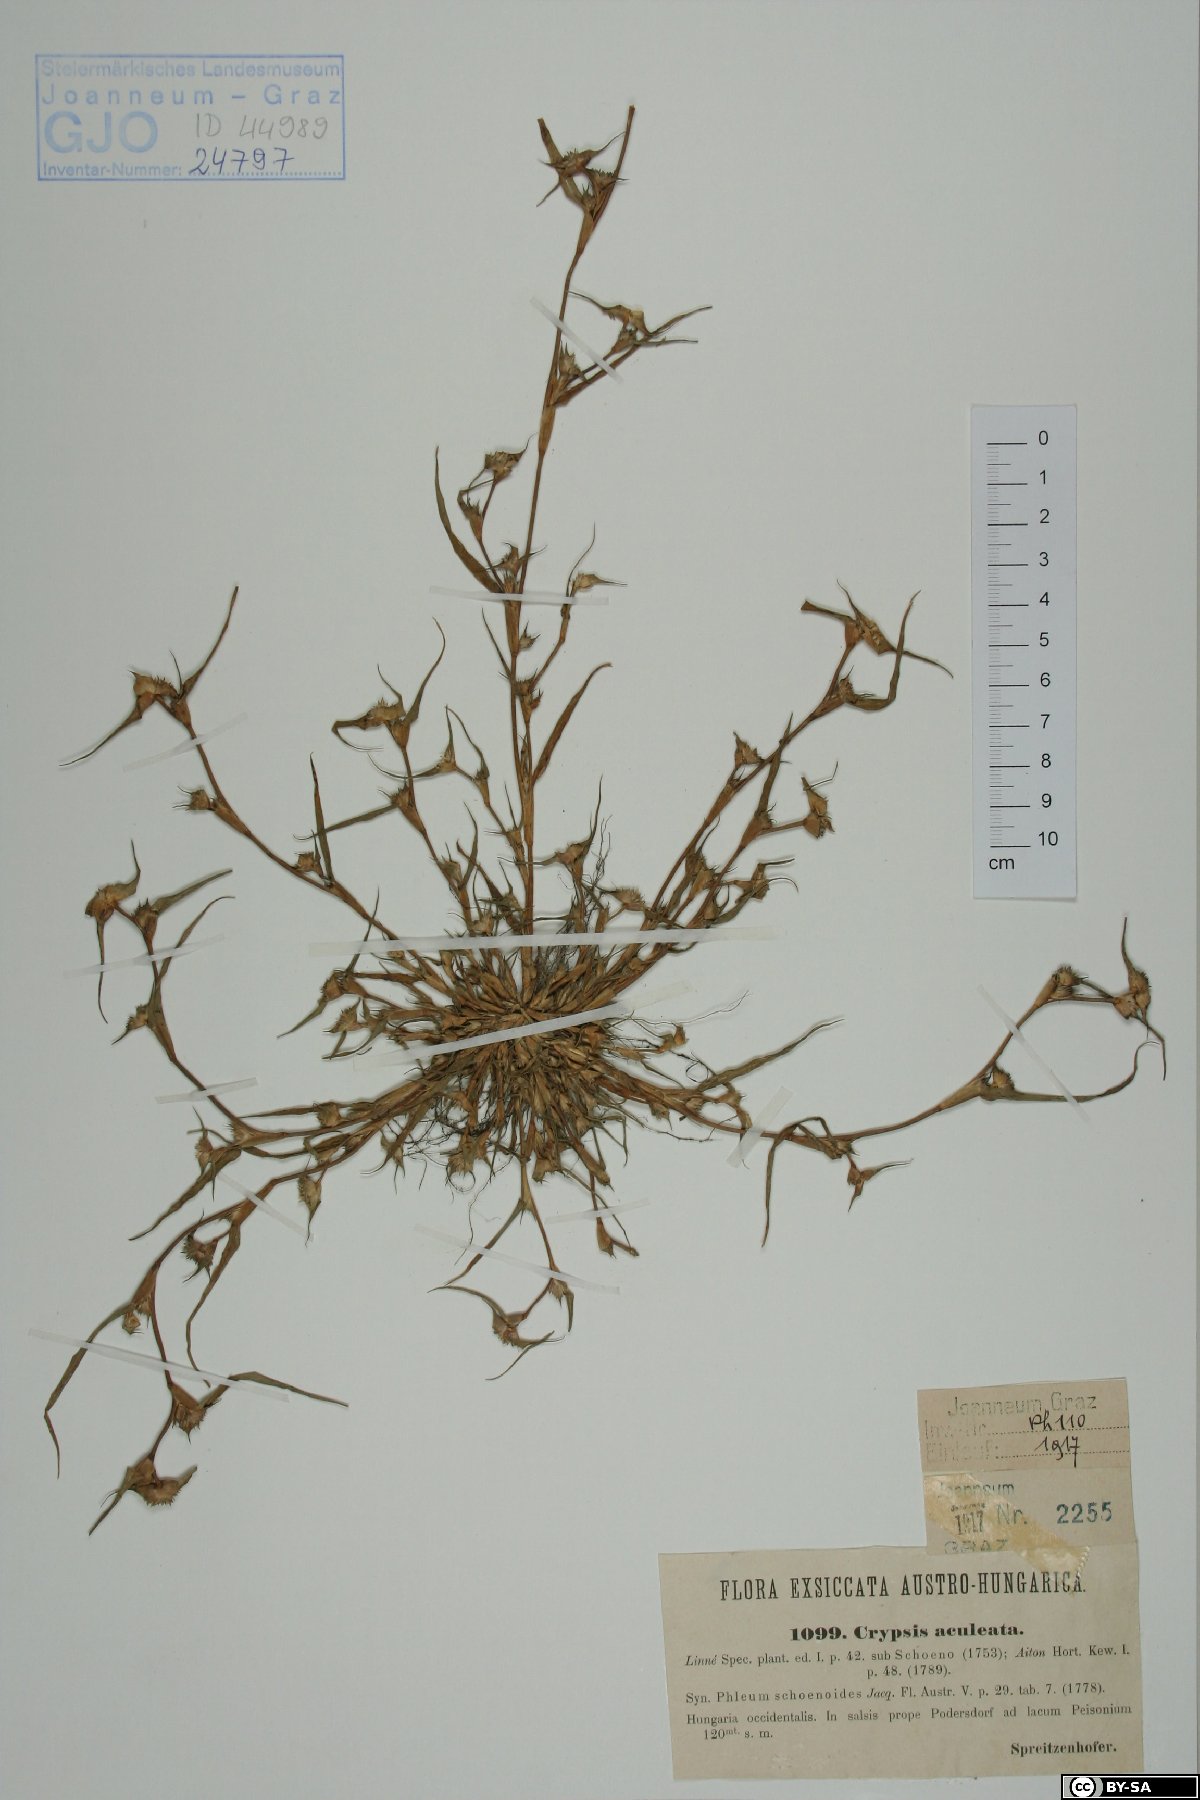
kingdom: Plantae
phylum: Tracheophyta
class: Liliopsida
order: Poales
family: Poaceae
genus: Sporobolus
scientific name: Sporobolus aculeatus
